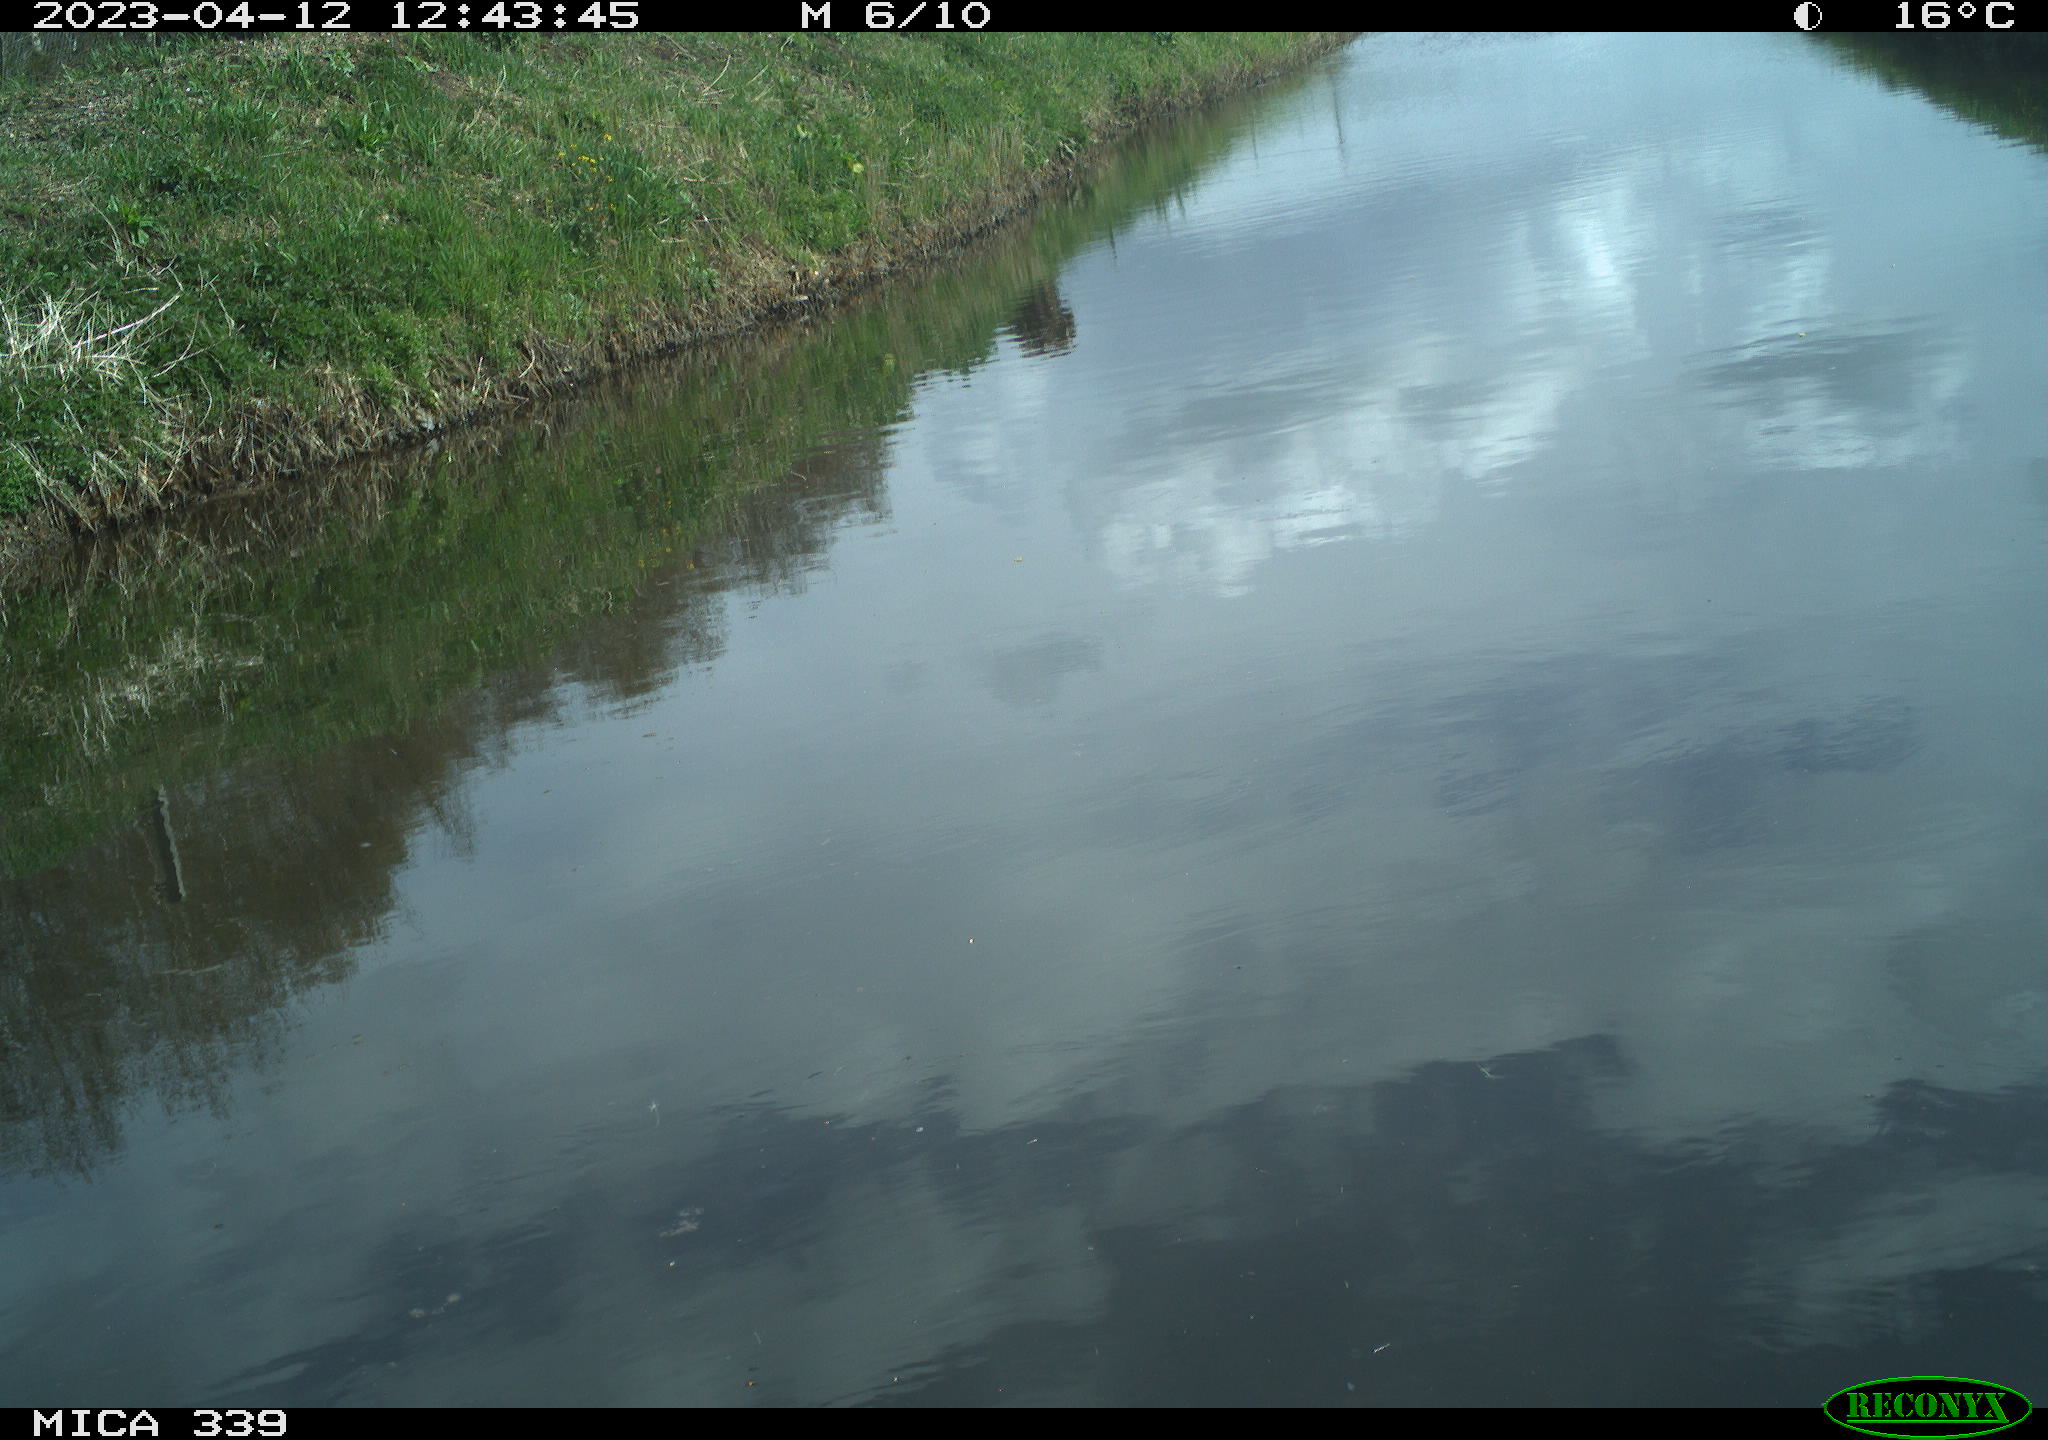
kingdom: Animalia
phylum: Chordata
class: Aves
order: Pelecaniformes
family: Ardeidae
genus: Ardea
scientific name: Ardea cinerea
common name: Grey heron
